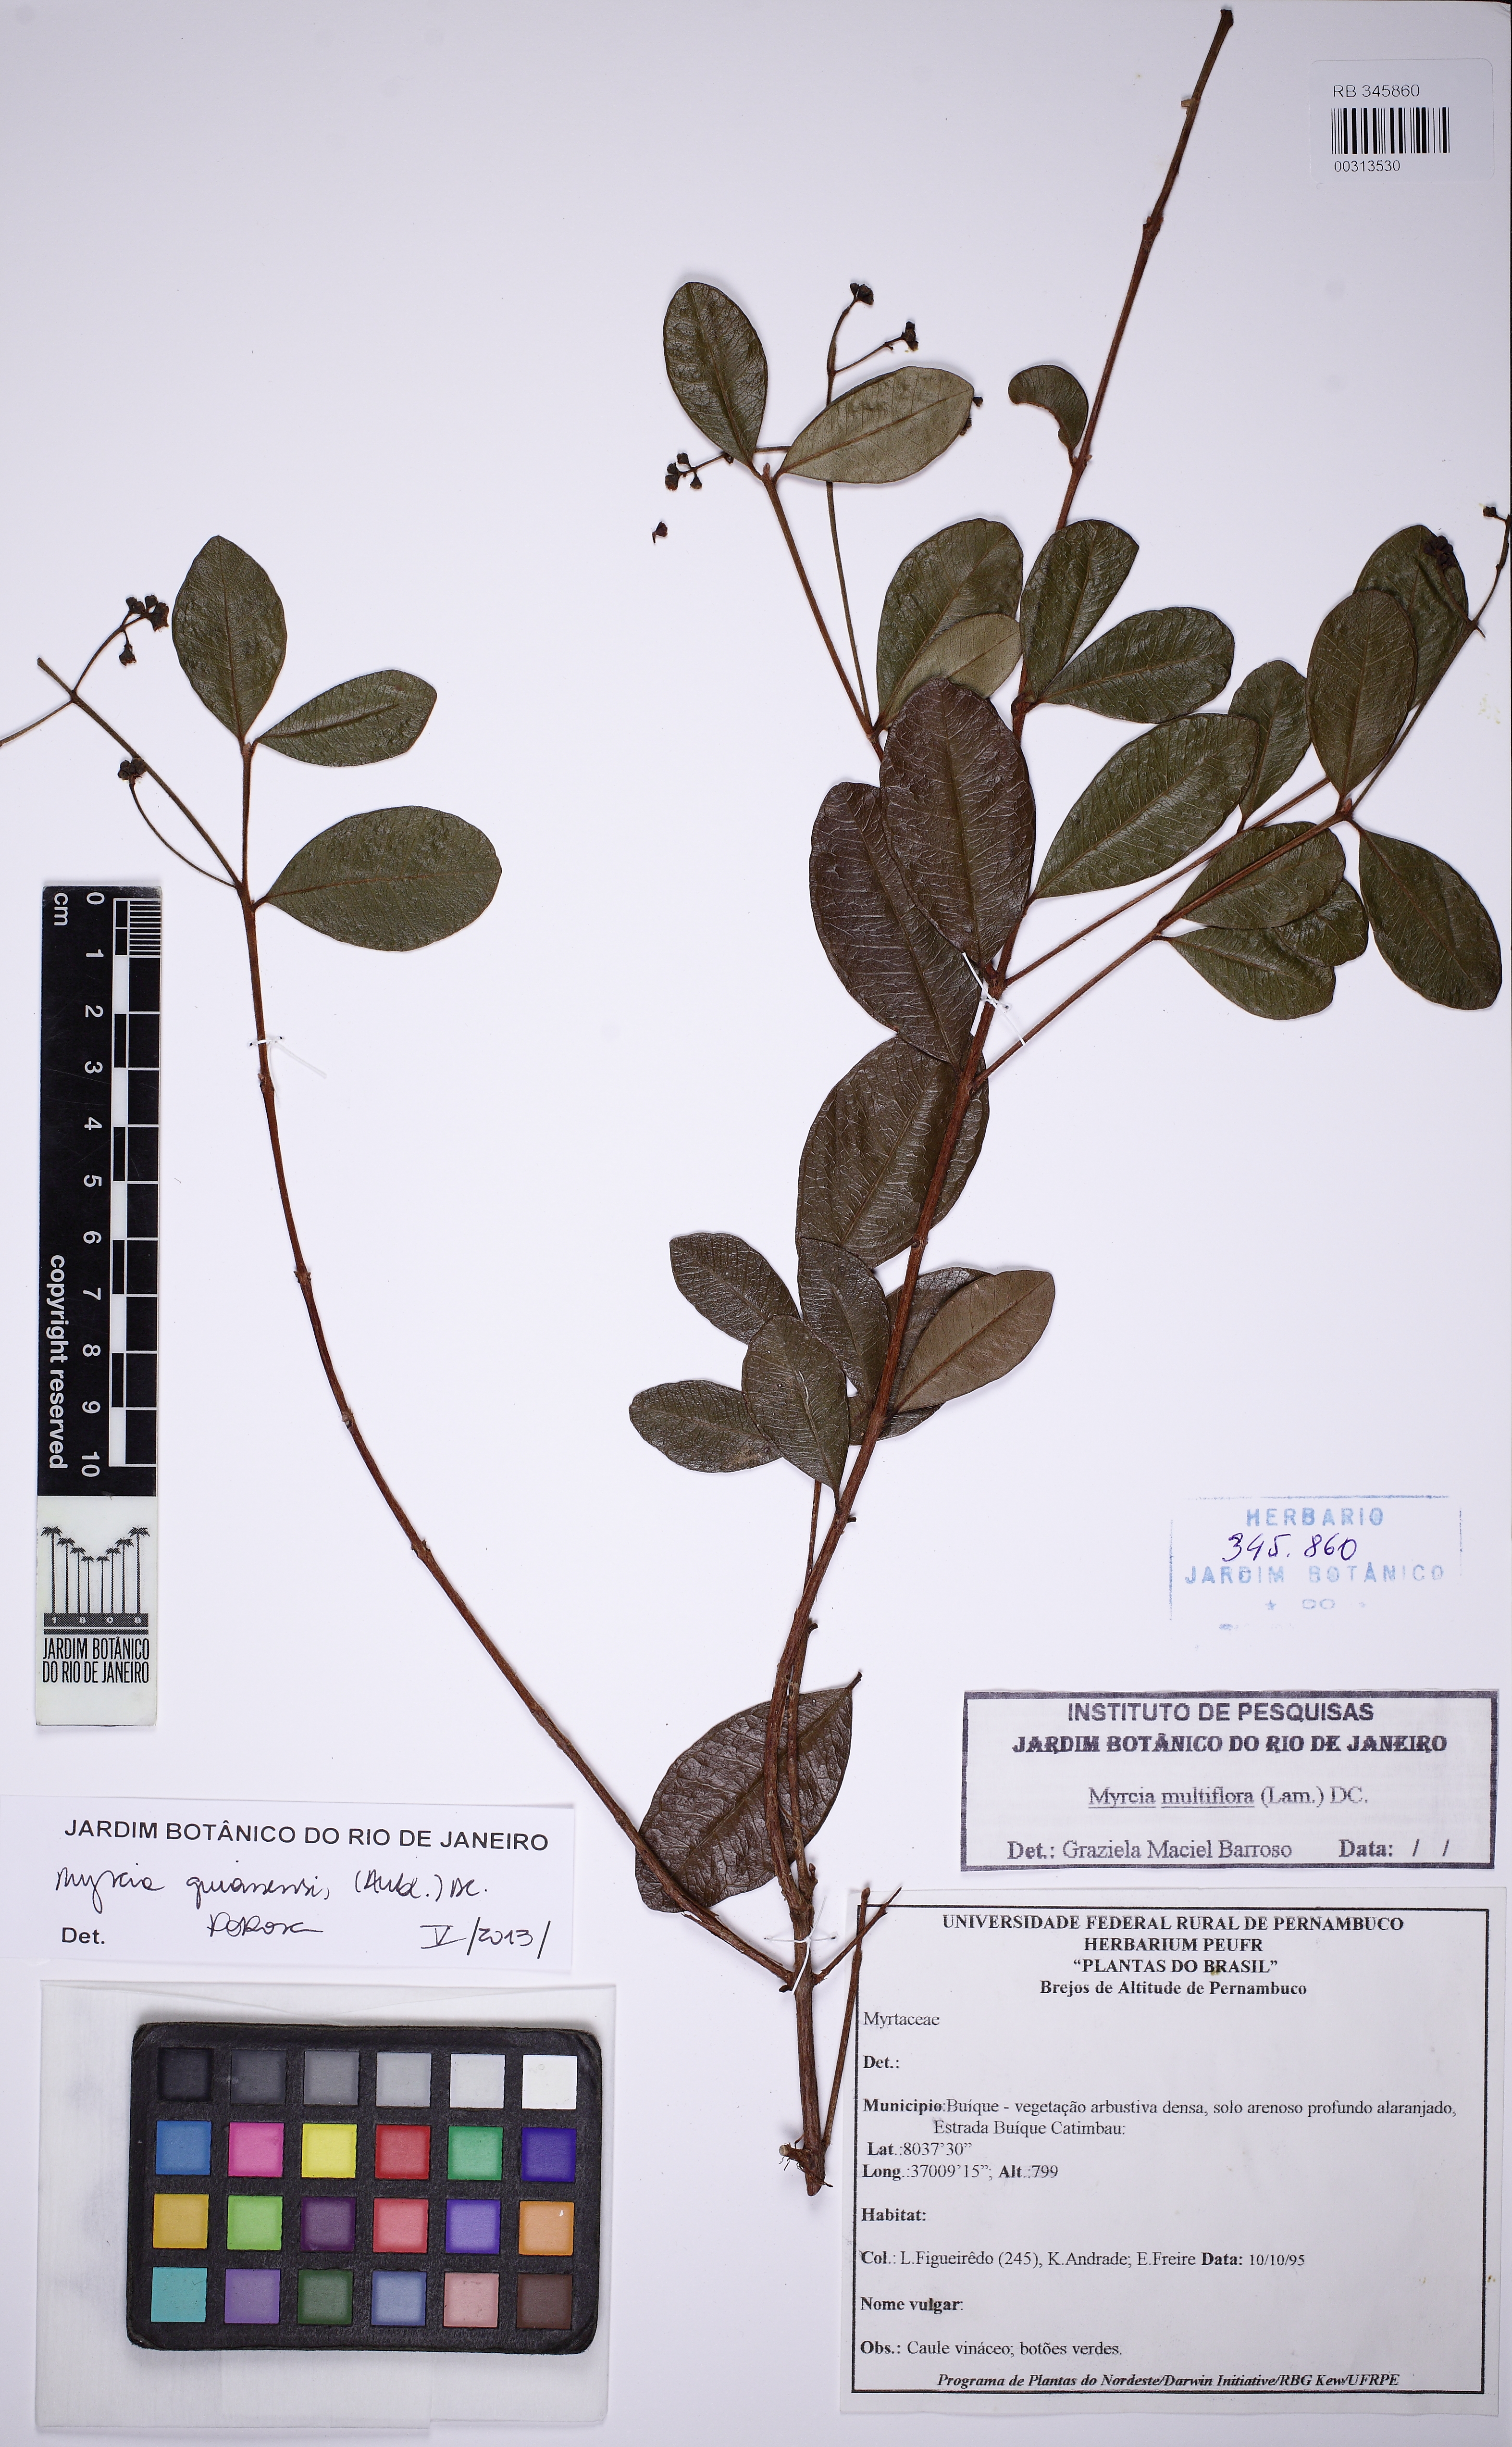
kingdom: Plantae
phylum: Tracheophyta
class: Magnoliopsida
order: Myrtales
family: Myrtaceae
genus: Myrcia
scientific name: Myrcia guianensis
